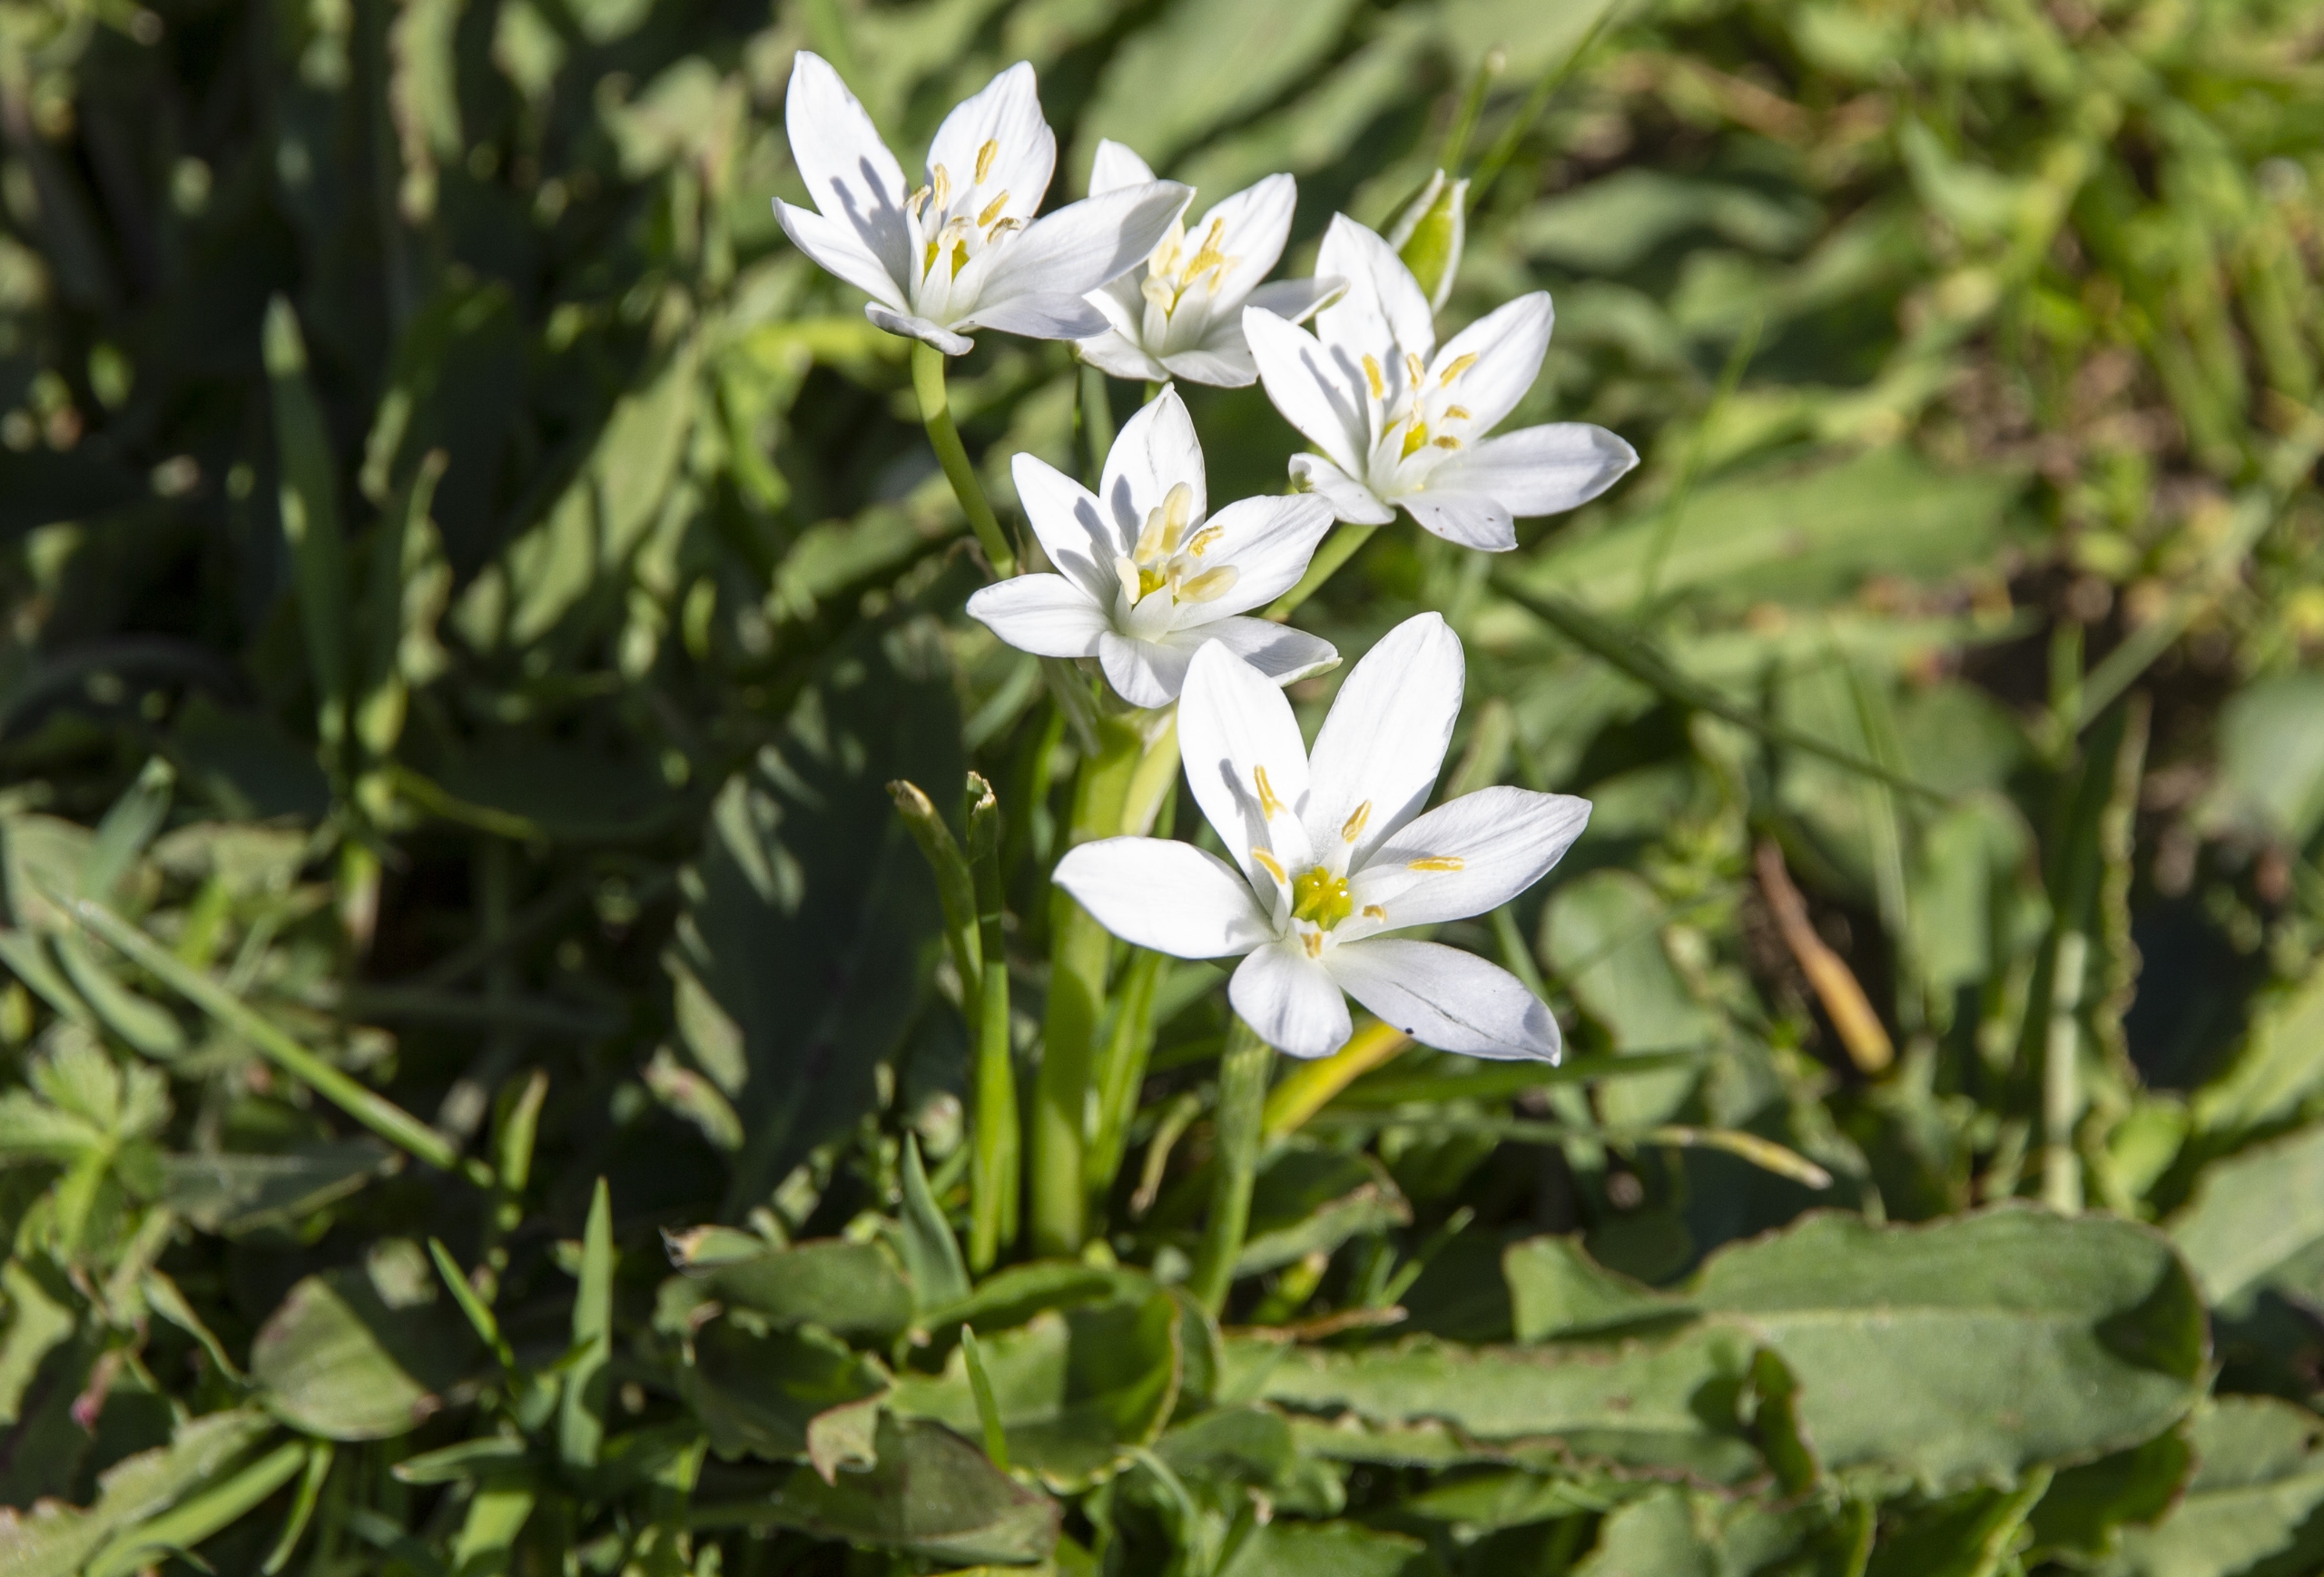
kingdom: Plantae
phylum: Tracheophyta
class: Liliopsida
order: Asparagales
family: Asparagaceae
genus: Ornithogalum
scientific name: Ornithogalum umbellatum
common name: Kost-fuglemælk
